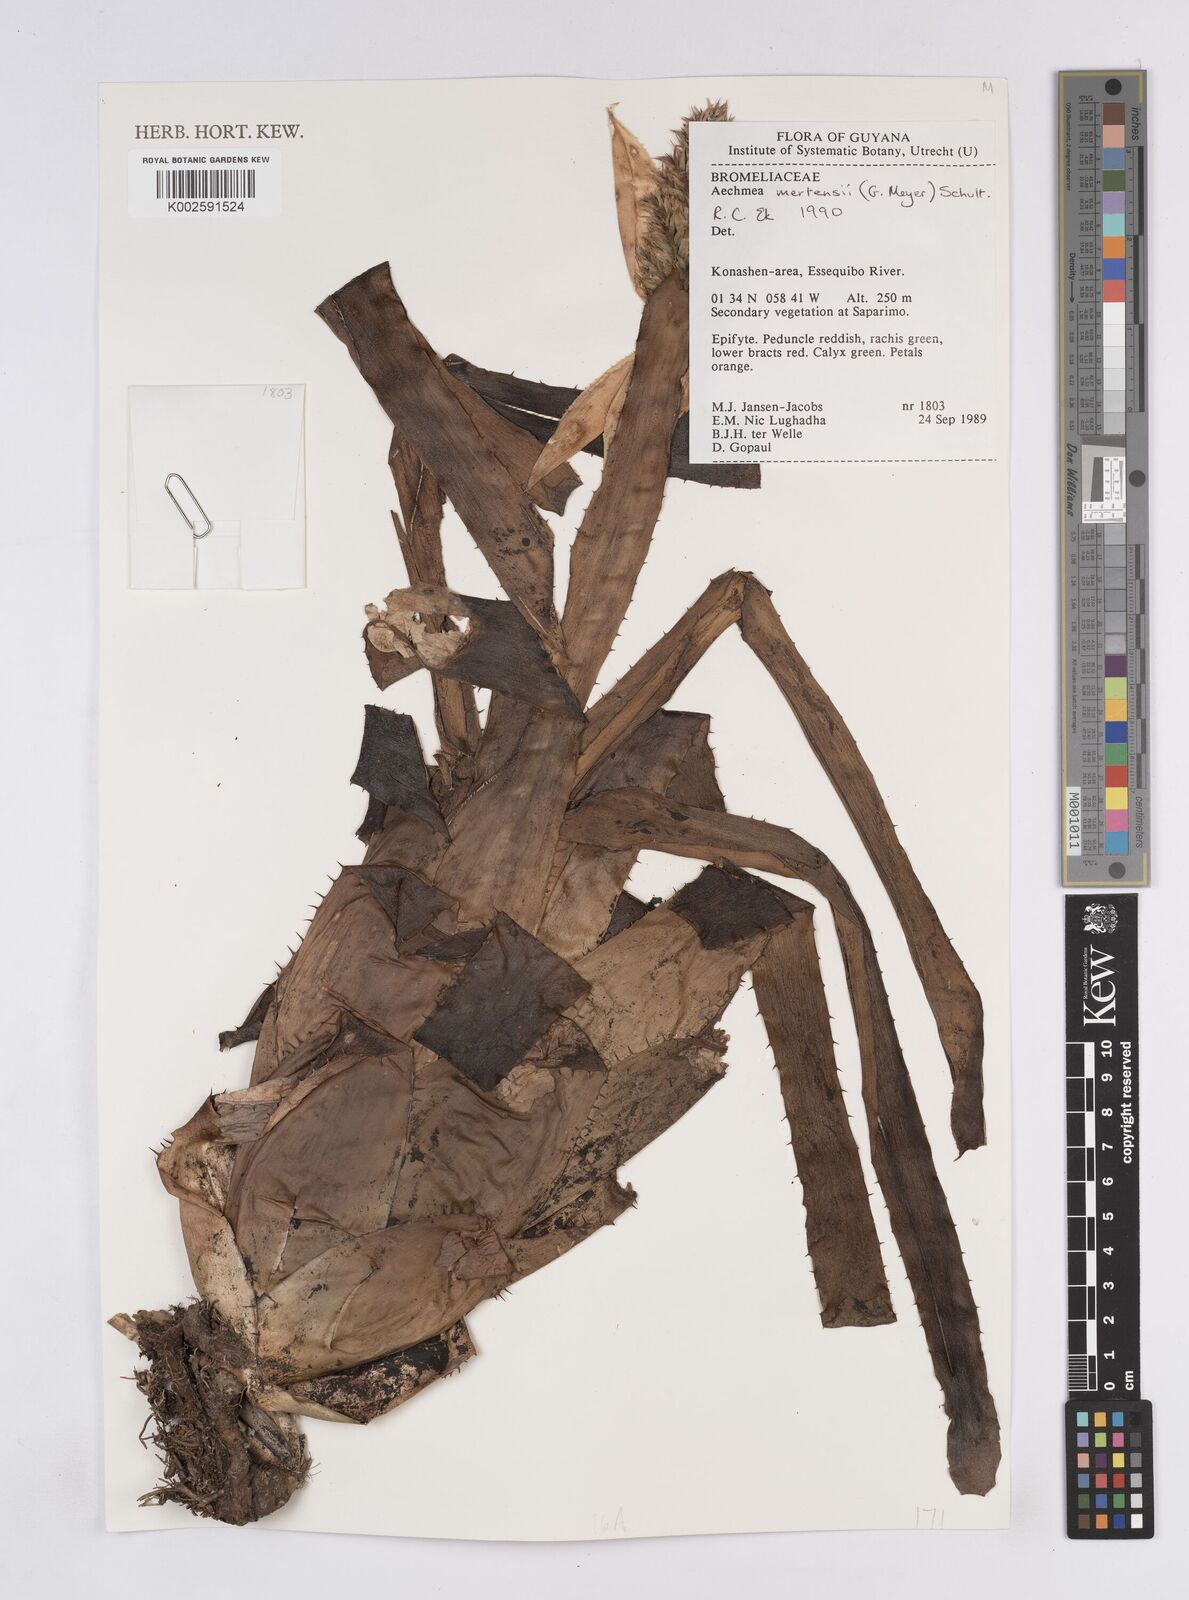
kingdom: Plantae
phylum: Tracheophyta
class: Liliopsida
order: Poales
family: Bromeliaceae
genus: Aechmea
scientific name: Aechmea mertensii
